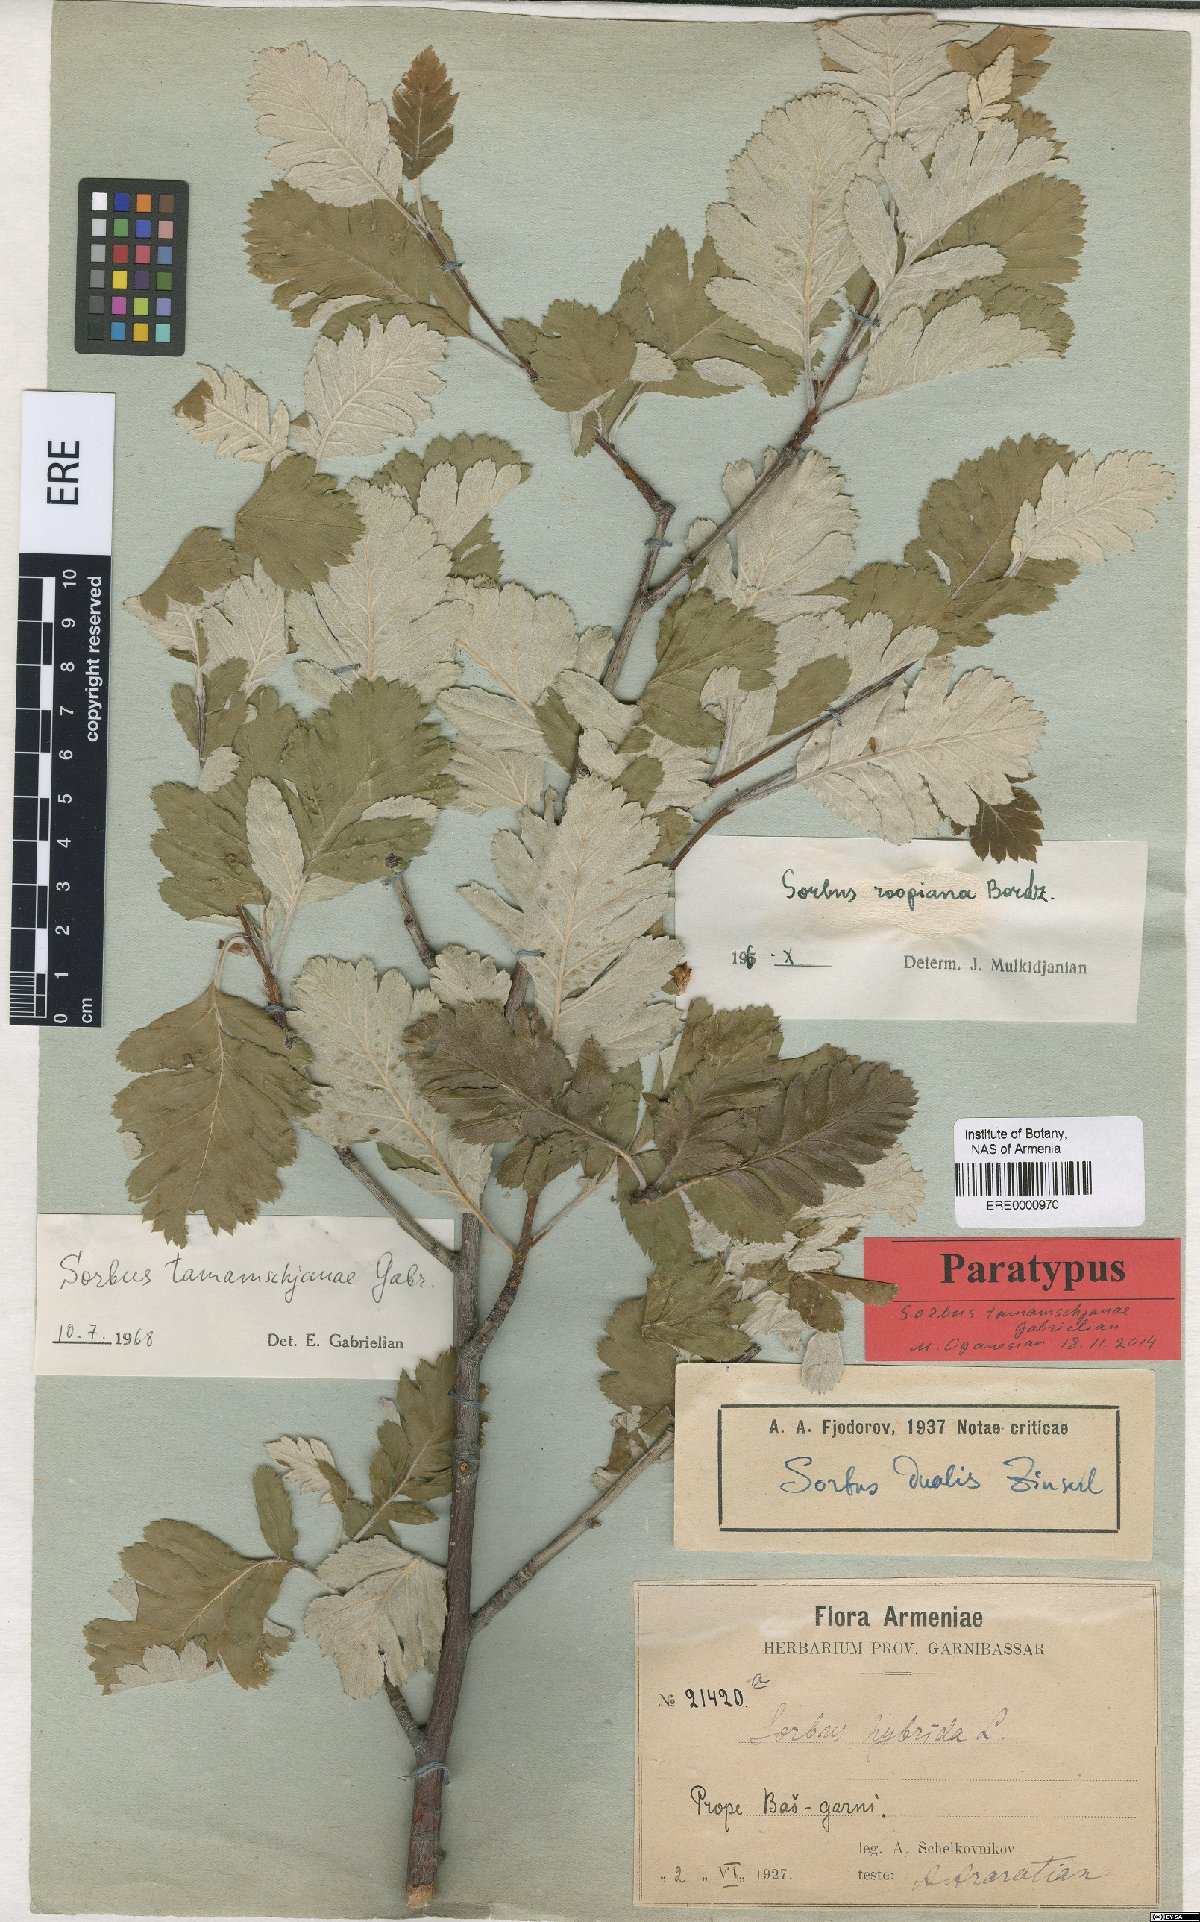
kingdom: Plantae
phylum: Tracheophyta
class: Magnoliopsida
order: Rosales
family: Rosaceae
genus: Hedlundia
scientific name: Hedlundia tamamschjanae
